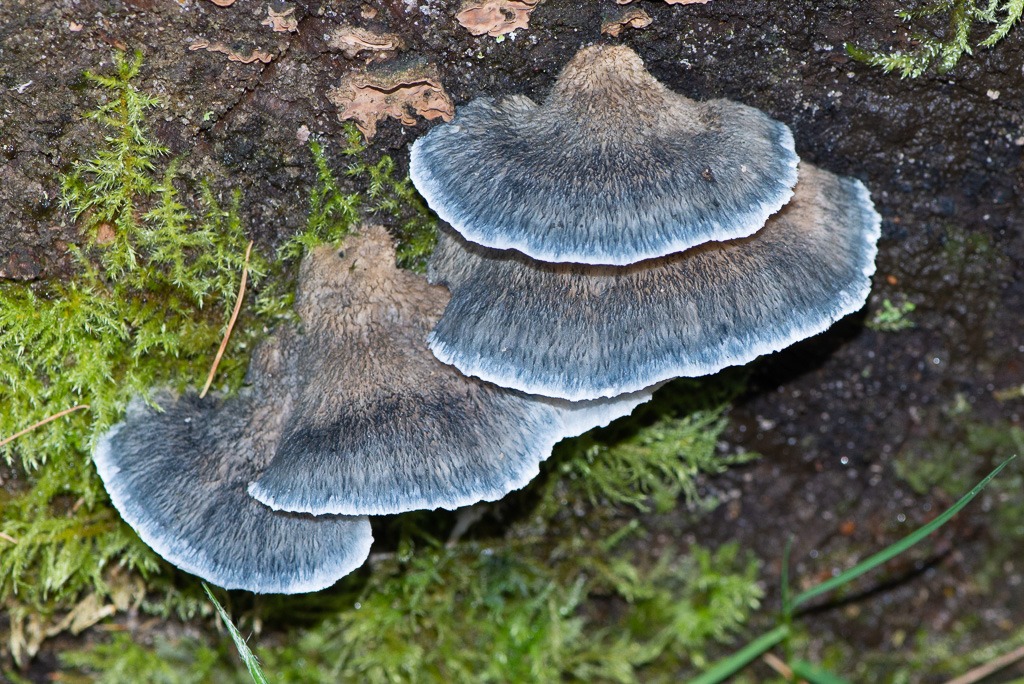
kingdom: Fungi
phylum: Basidiomycota
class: Agaricomycetes
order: Polyporales
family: Polyporaceae
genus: Cyanosporus
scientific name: Cyanosporus caesius
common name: blålig kødporesvamp
